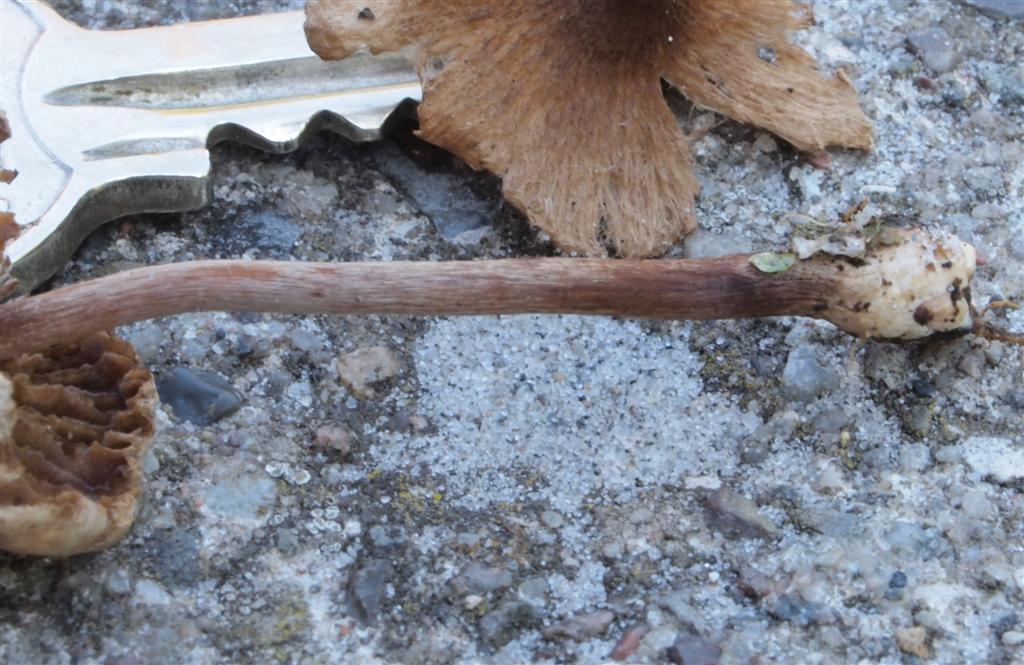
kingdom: Fungi
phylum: Basidiomycota
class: Agaricomycetes
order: Agaricales
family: Inocybaceae
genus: Inocybe
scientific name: Inocybe
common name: trævlhat
